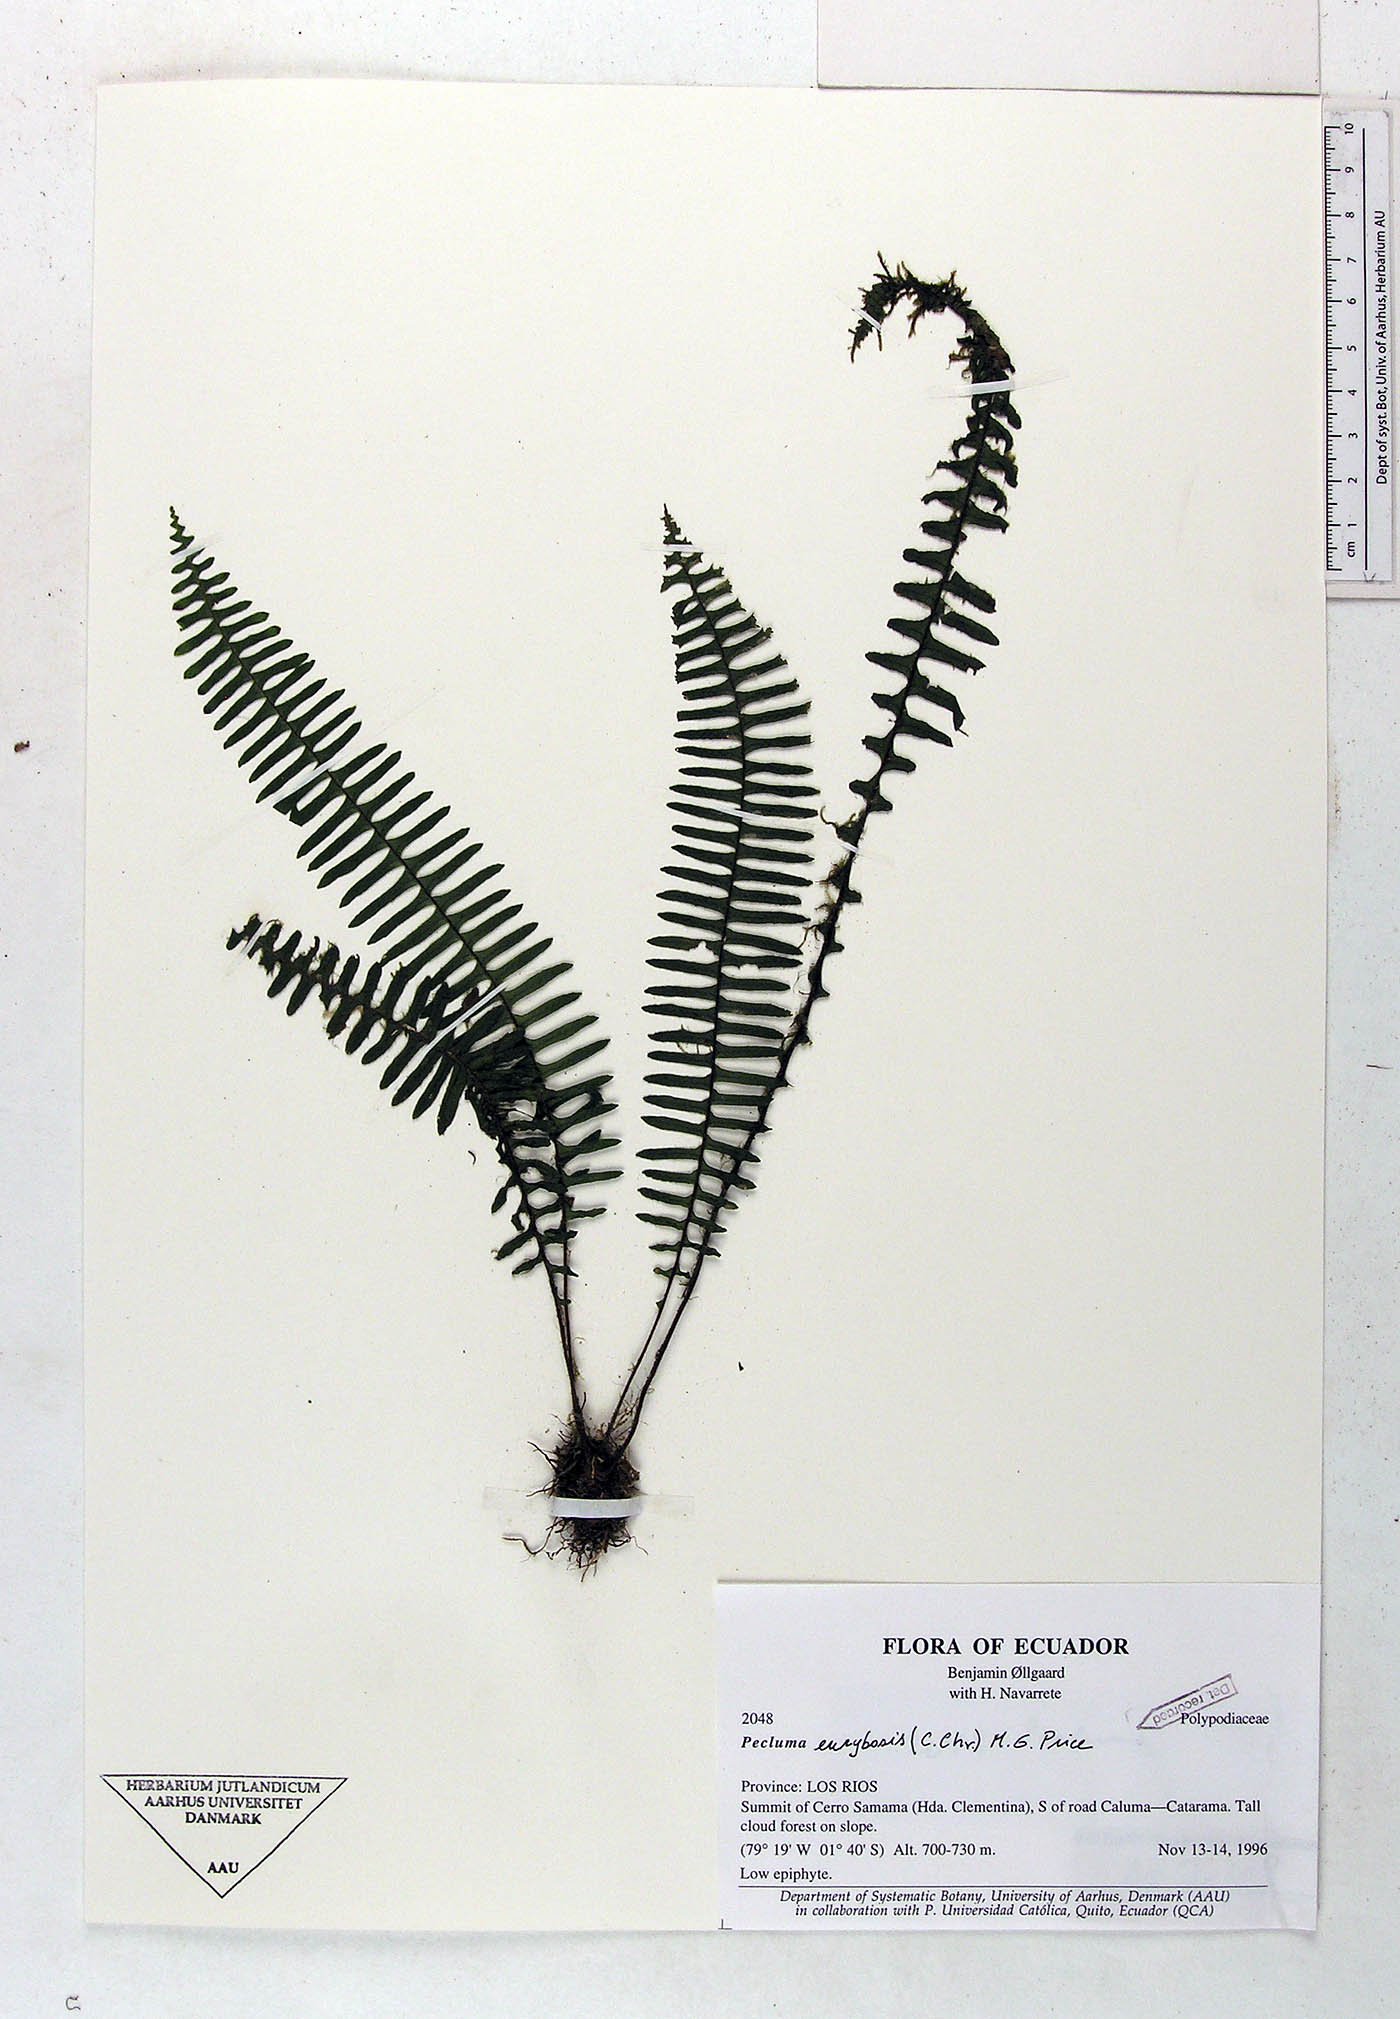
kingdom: Plantae
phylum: Tracheophyta
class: Polypodiopsida
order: Polypodiales
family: Polypodiaceae
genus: Pecluma
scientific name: Pecluma eurybasis
